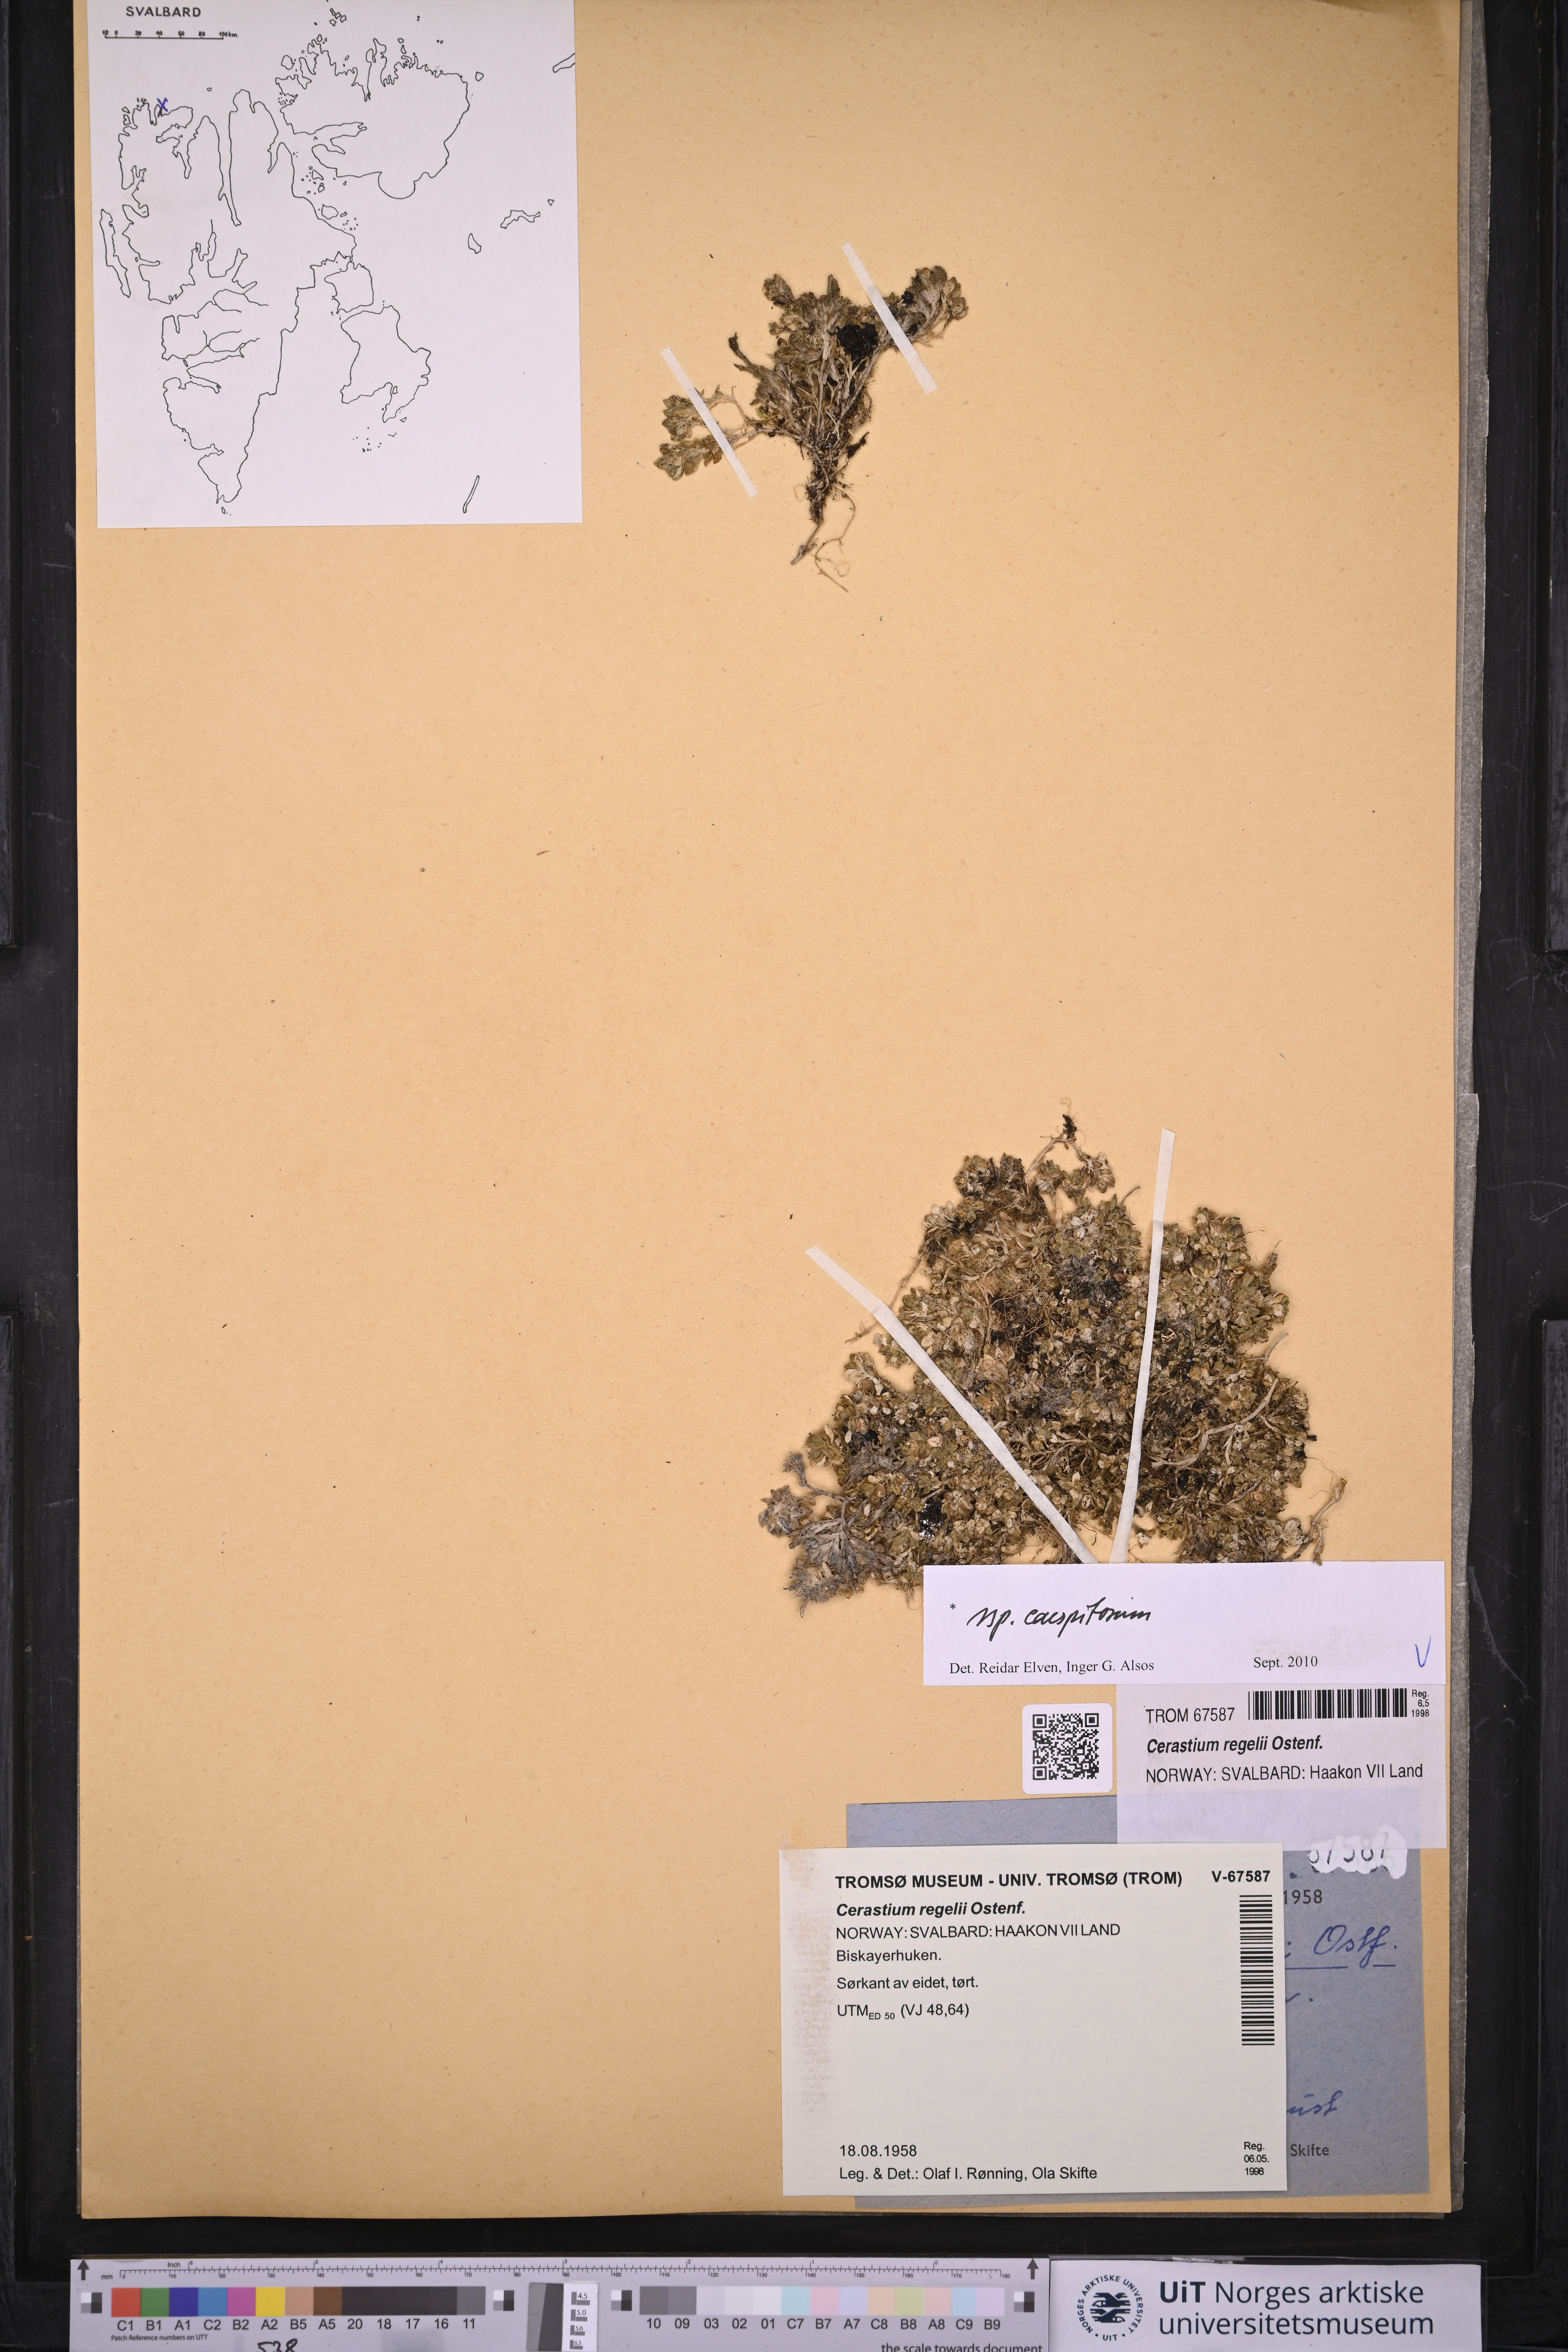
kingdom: Plantae
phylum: Tracheophyta
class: Magnoliopsida
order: Caryophyllales
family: Caryophyllaceae
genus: Cerastium
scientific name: Cerastium regelii
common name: Regel's chickweed
